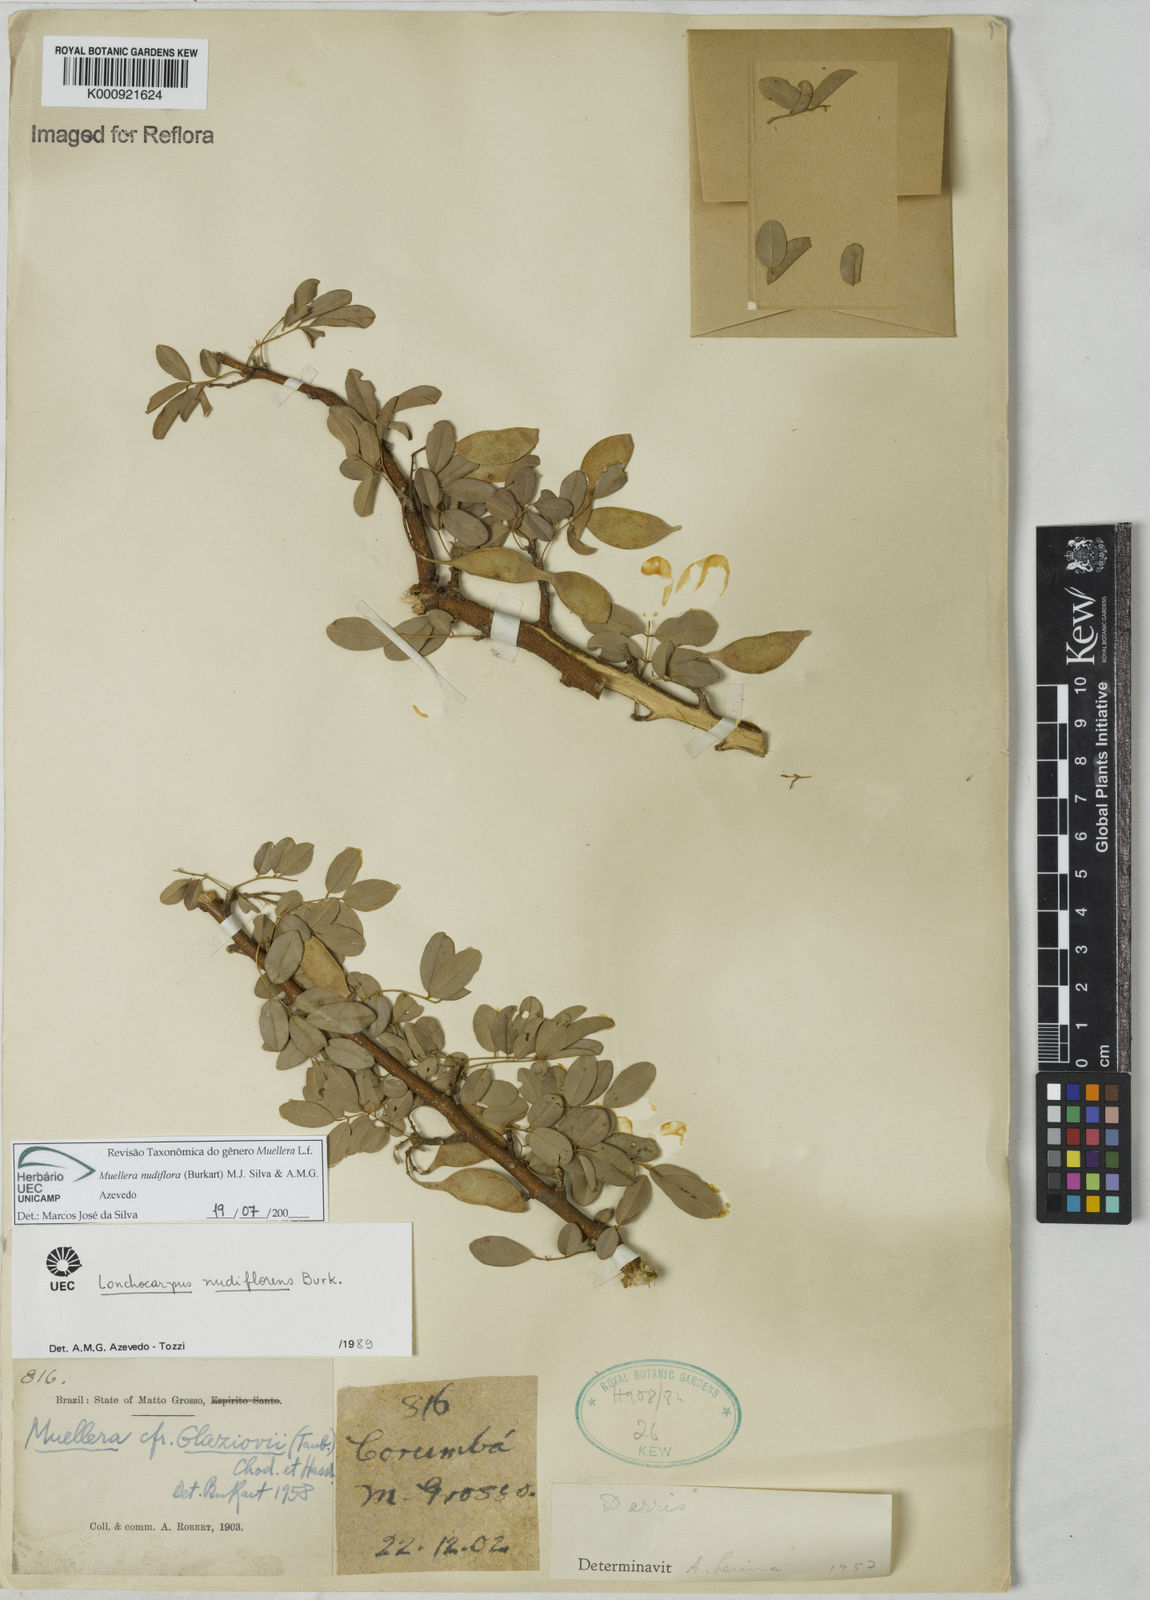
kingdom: Plantae
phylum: Tracheophyta
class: Magnoliopsida
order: Fabales
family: Fabaceae
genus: Muellera
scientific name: Muellera
